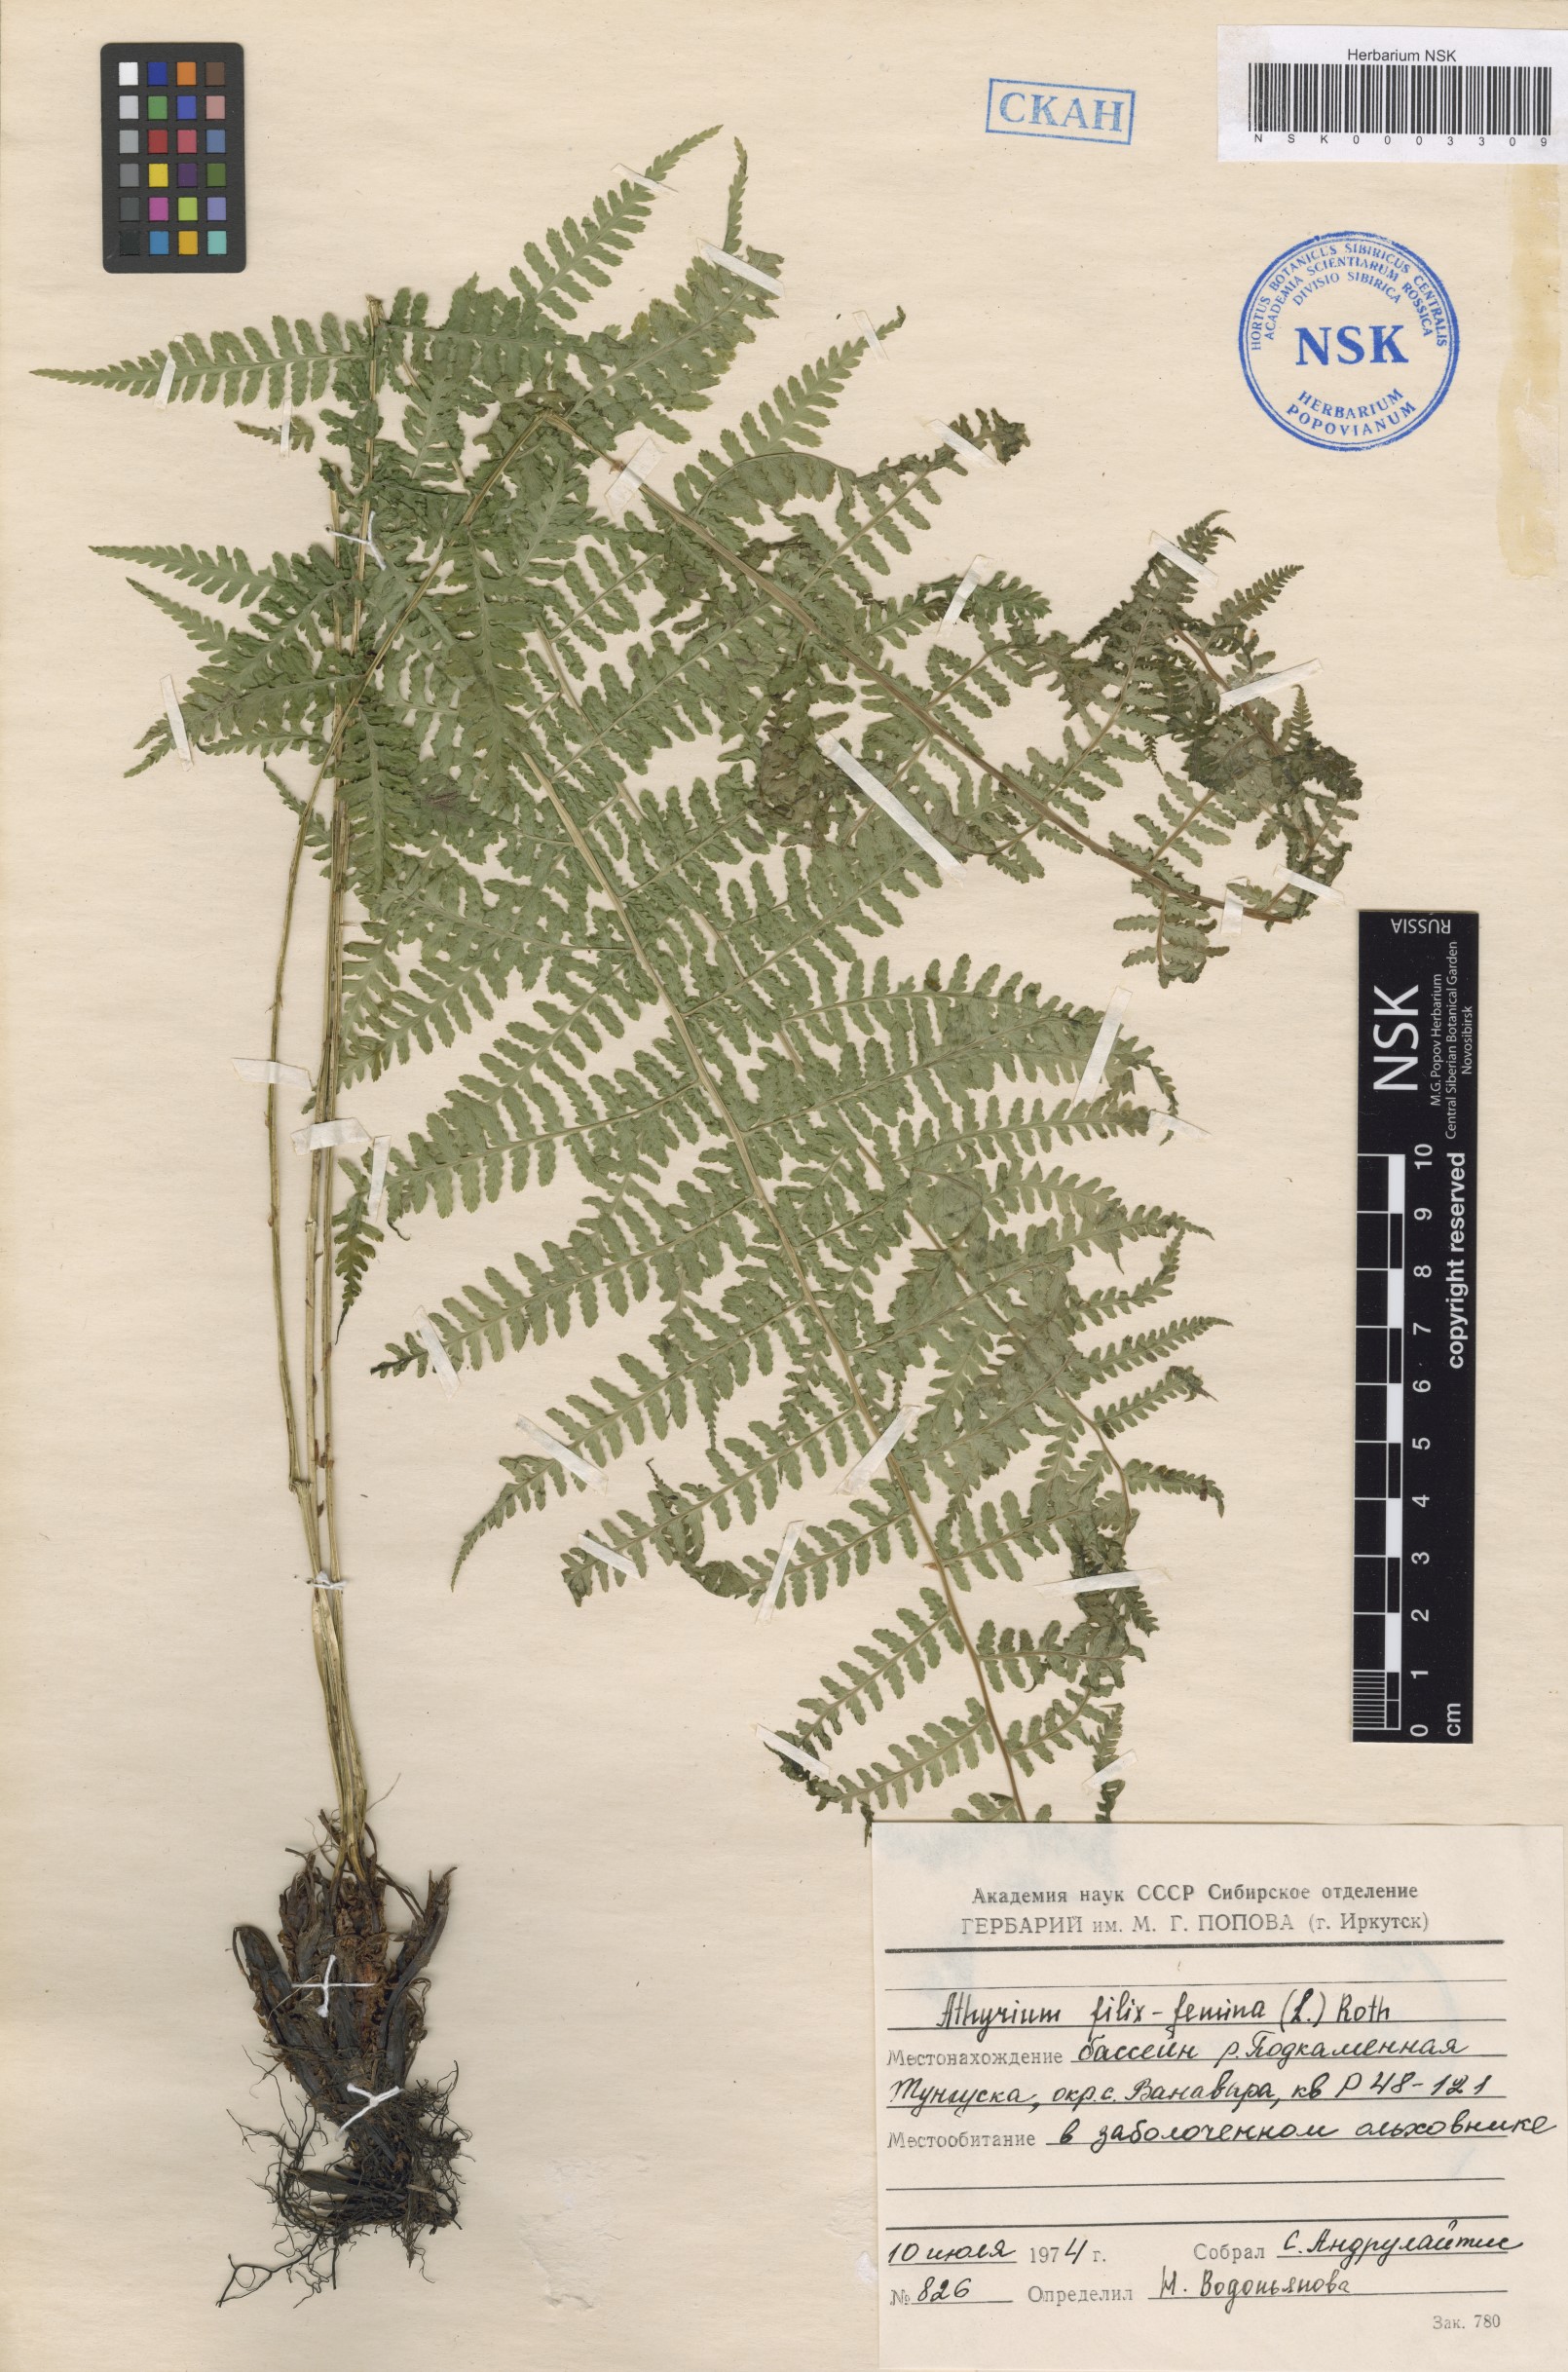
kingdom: Plantae
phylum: Tracheophyta
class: Polypodiopsida
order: Polypodiales
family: Athyriaceae
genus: Athyrium
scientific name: Athyrium filix-femina
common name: Lady fern
